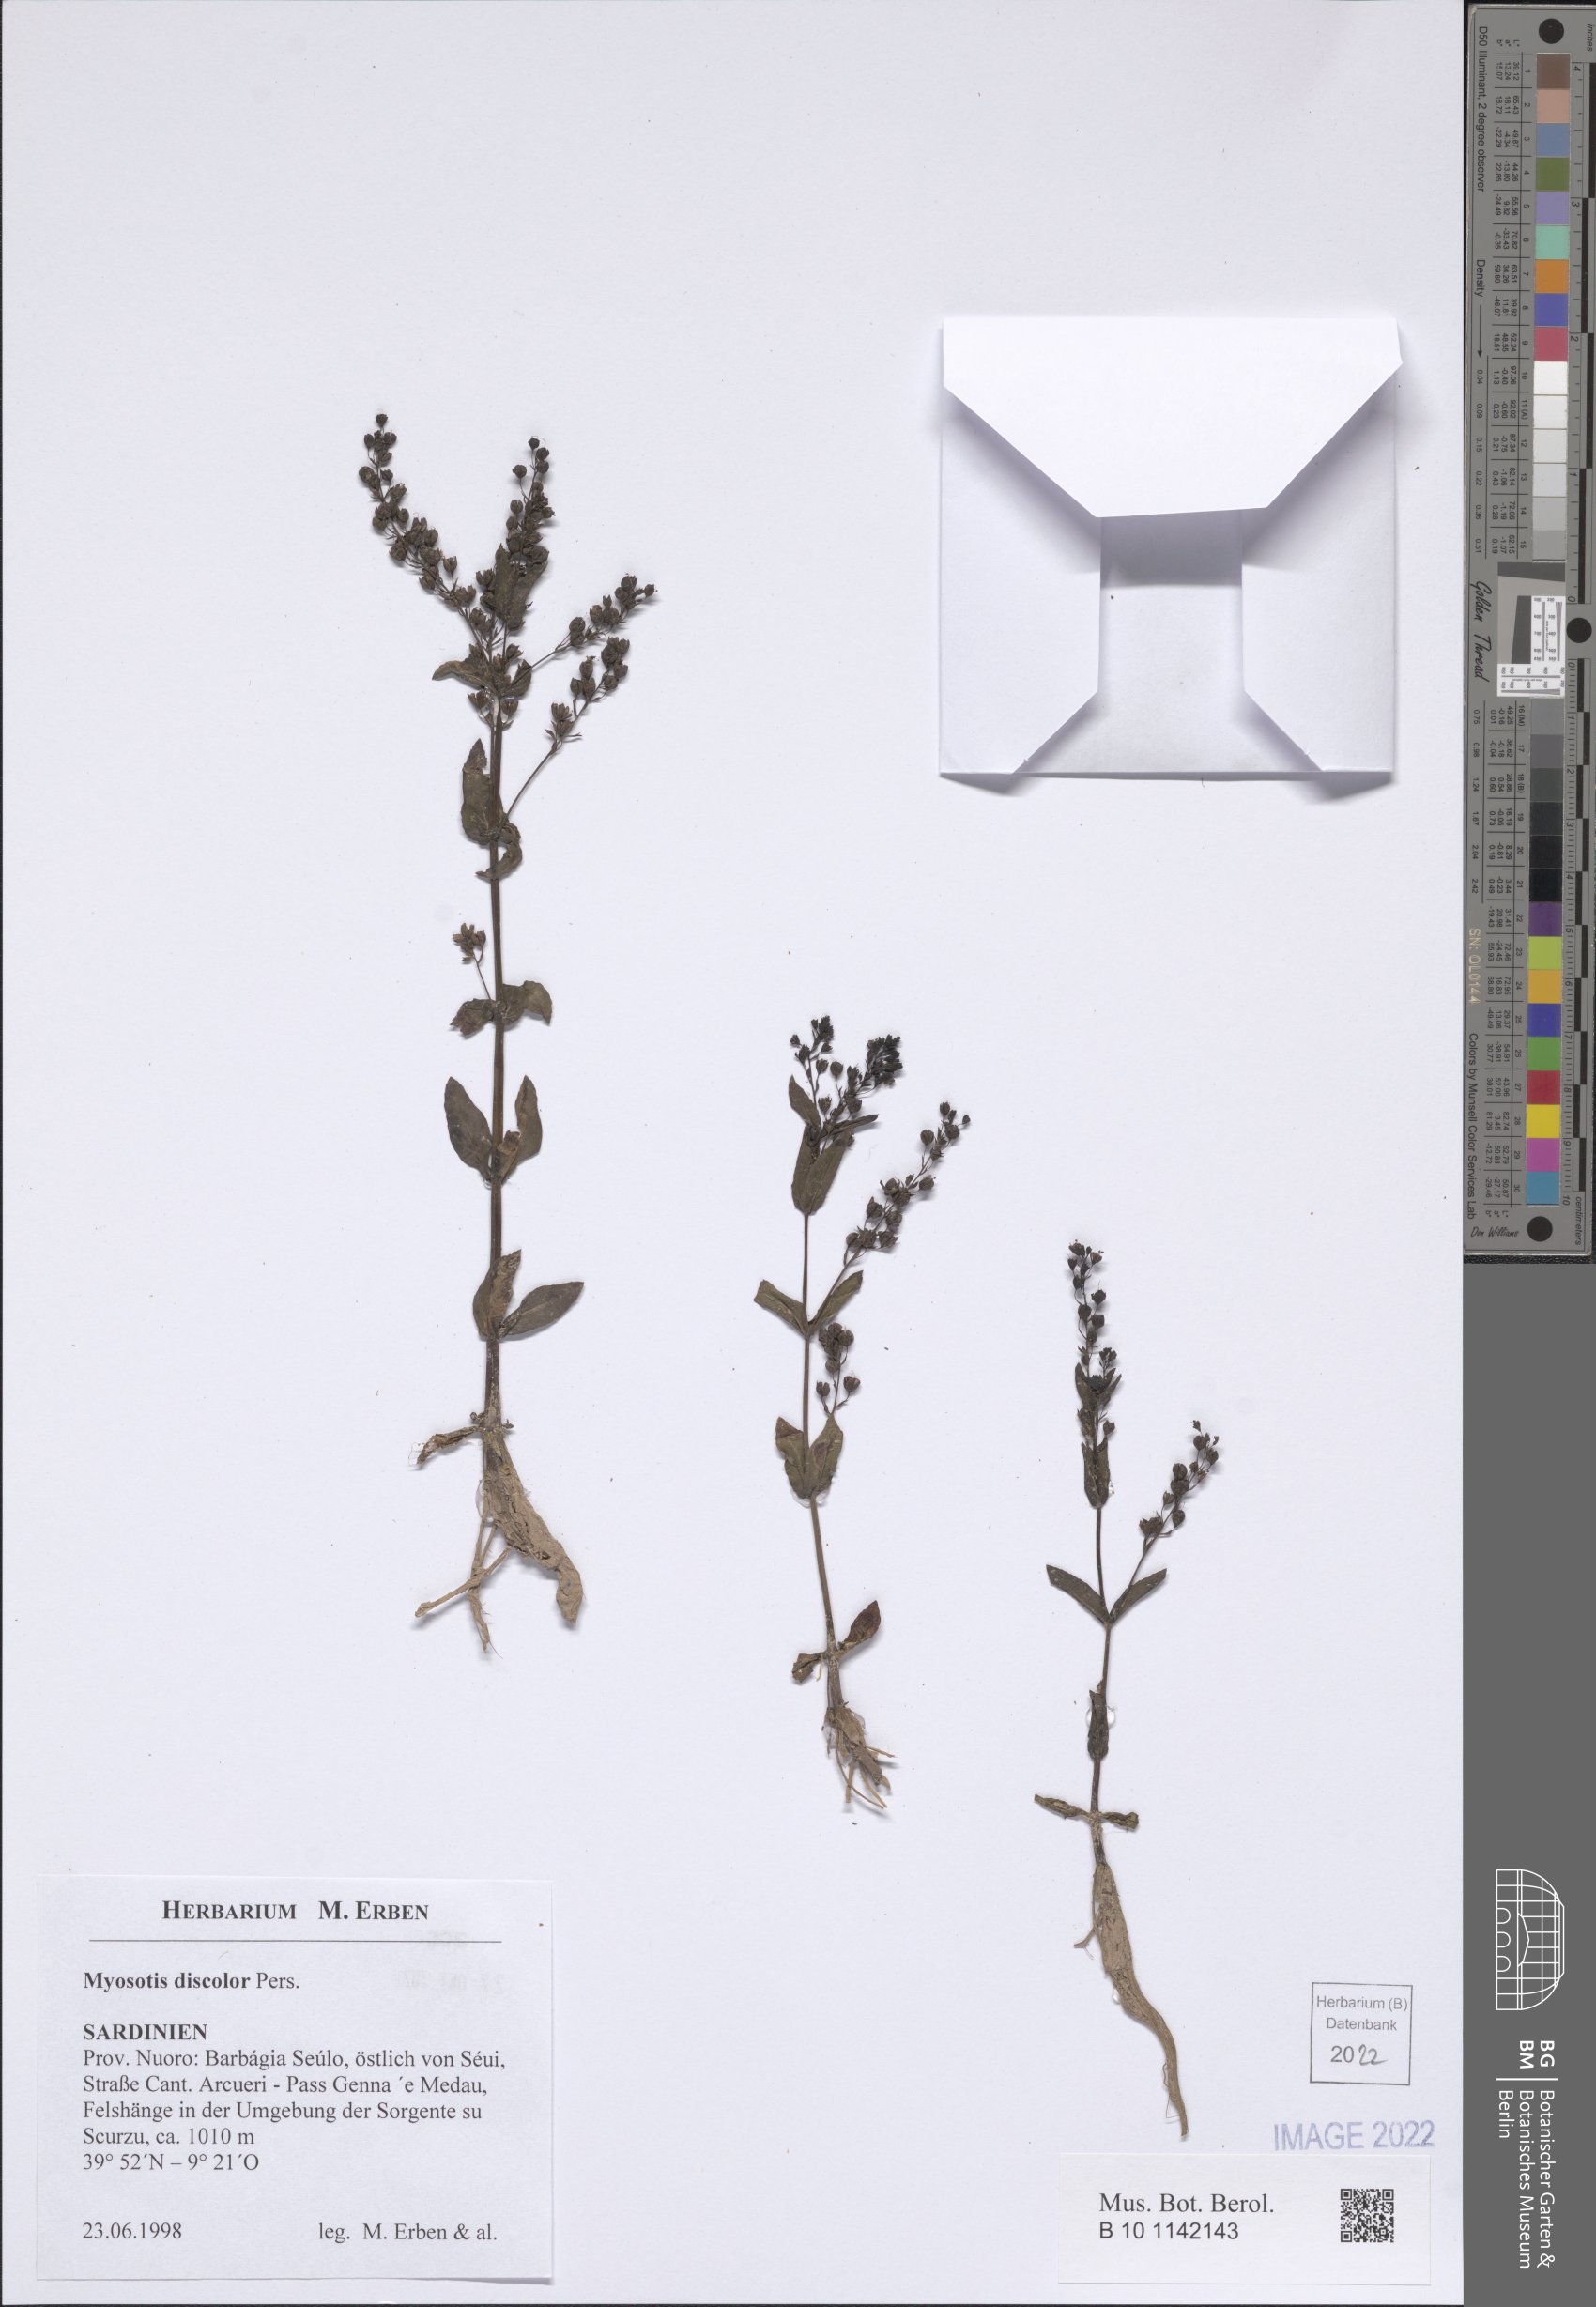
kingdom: Plantae
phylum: Tracheophyta
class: Magnoliopsida
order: Boraginales
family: Boraginaceae
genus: Myosotis
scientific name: Myosotis discolor
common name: Changing forget-me-not
